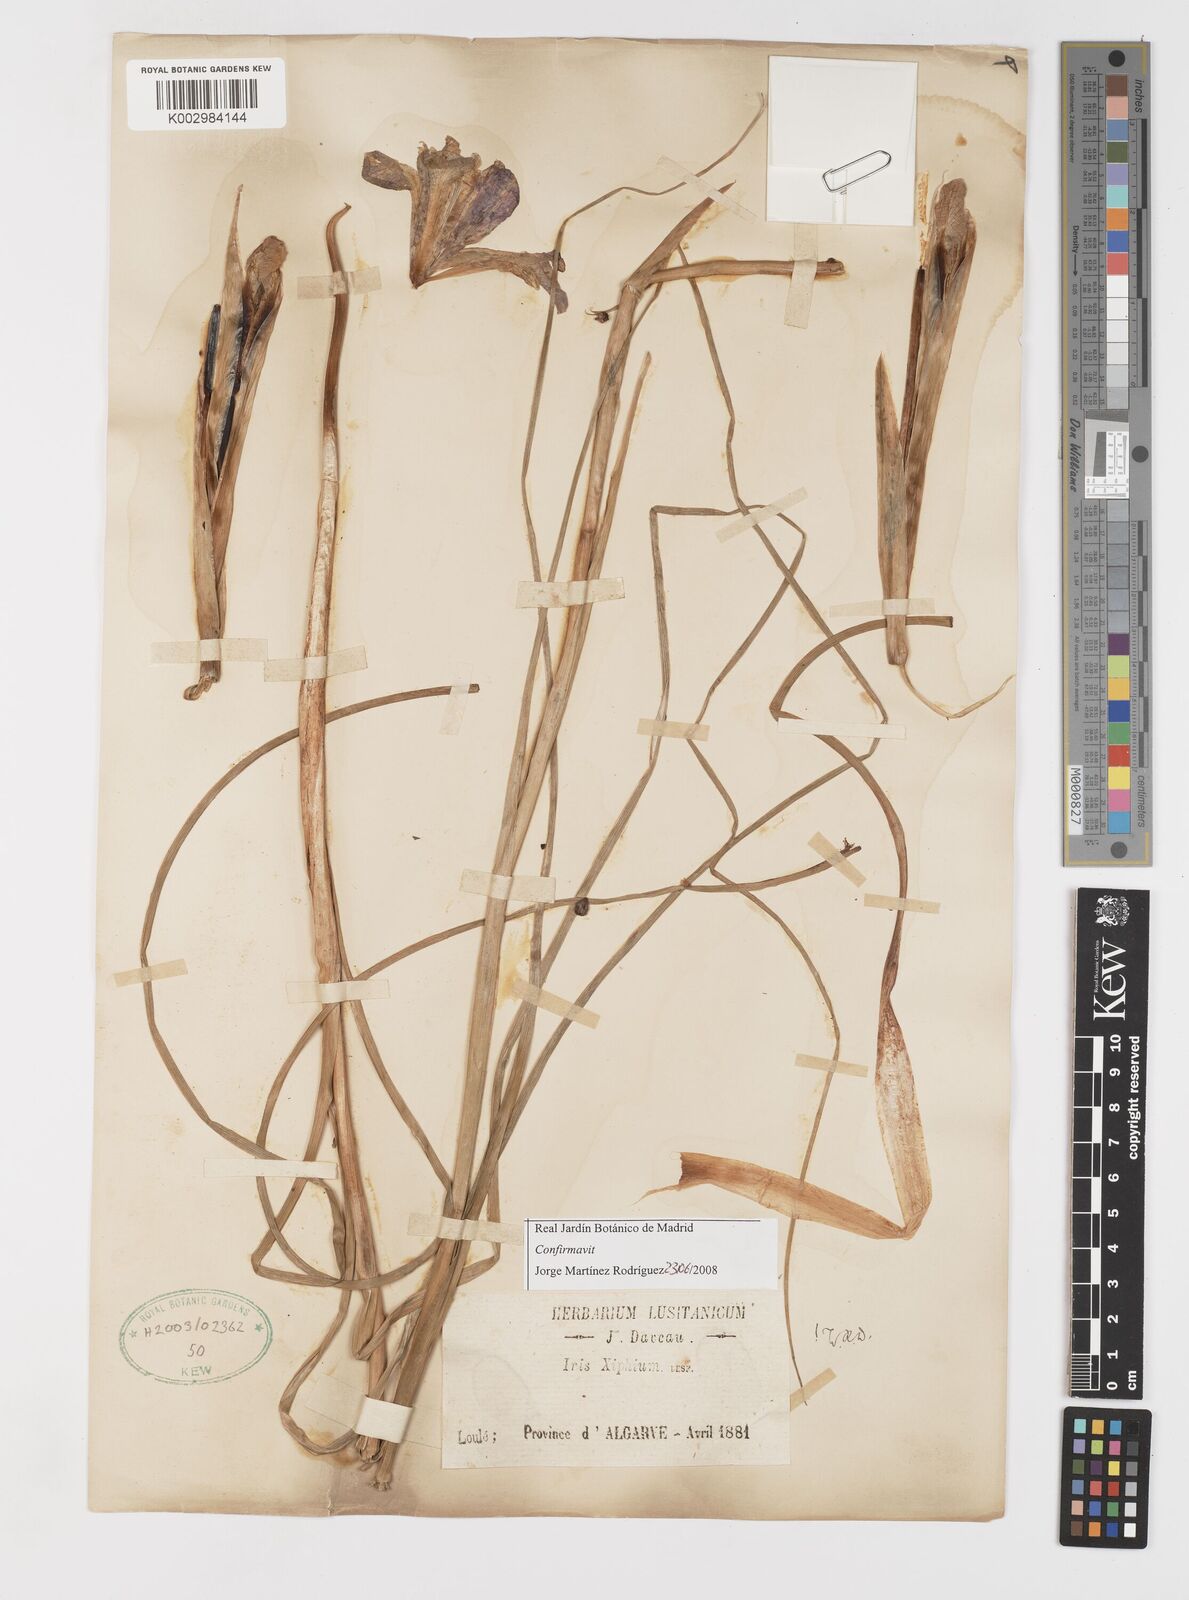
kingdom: Plantae
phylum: Tracheophyta
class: Liliopsida
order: Asparagales
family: Iridaceae
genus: Iris
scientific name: Iris xiphium
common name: Spanish iris
